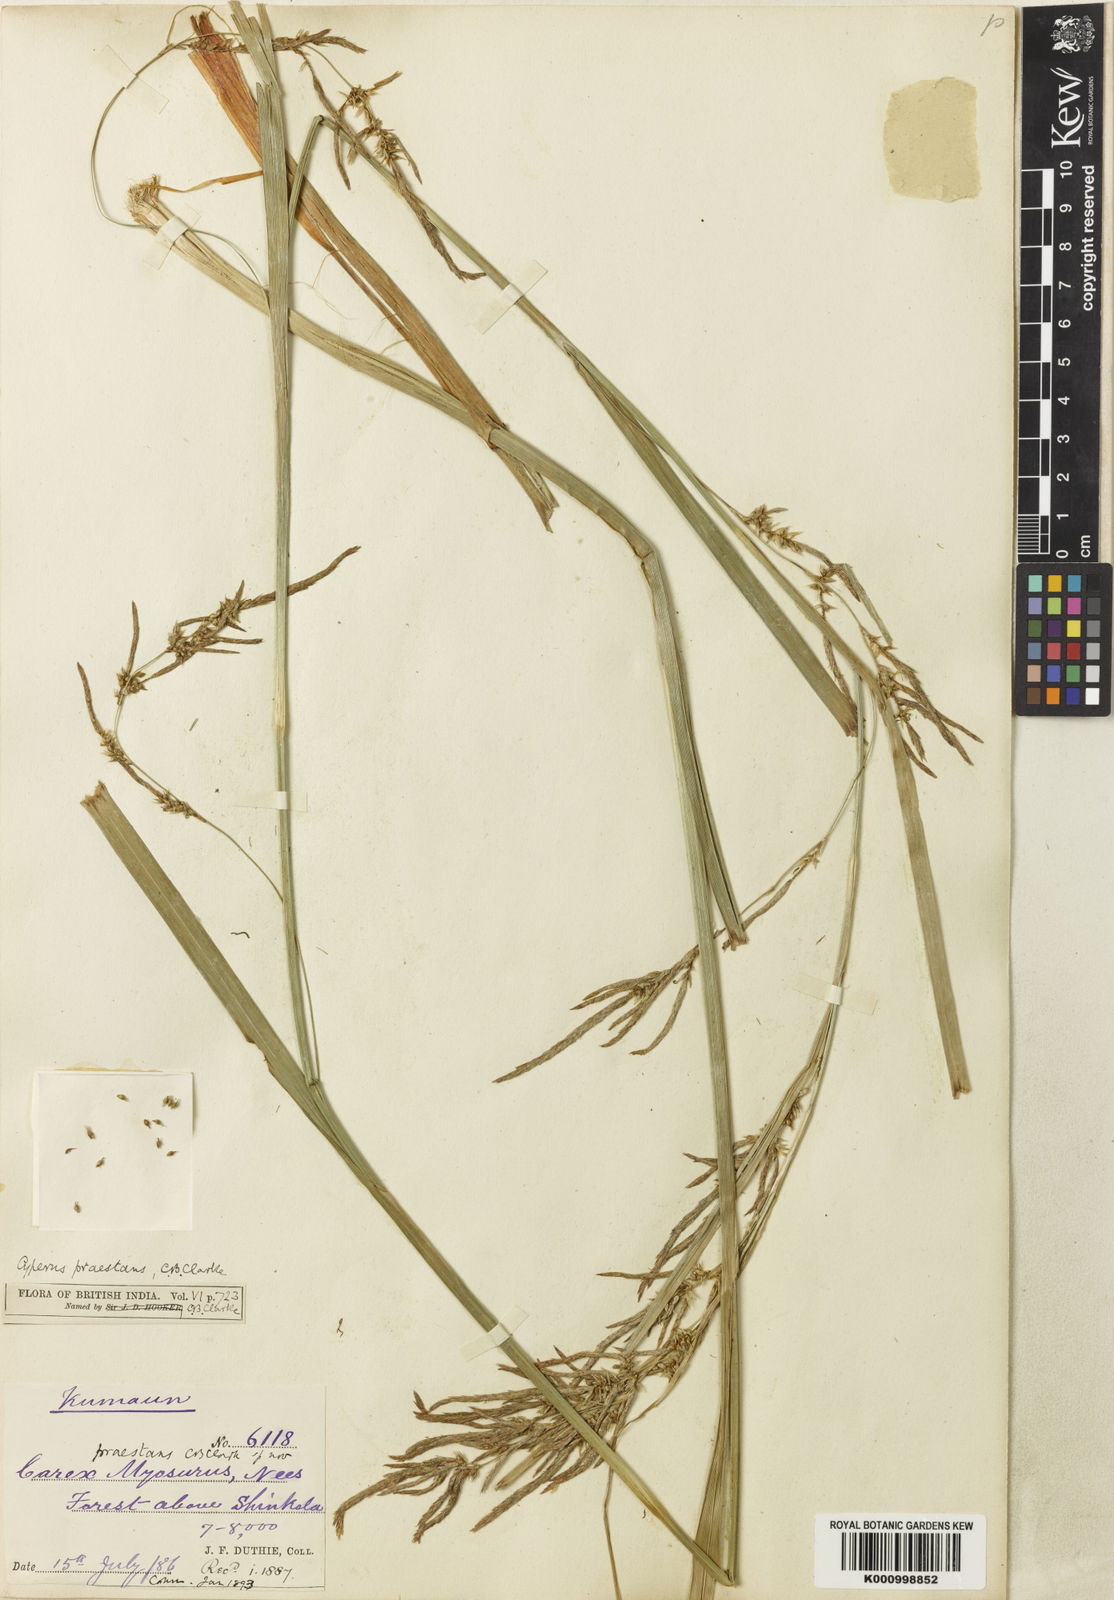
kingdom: Plantae
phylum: Tracheophyta
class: Liliopsida
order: Poales
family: Cyperaceae
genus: Carex
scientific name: Carex myosurus
